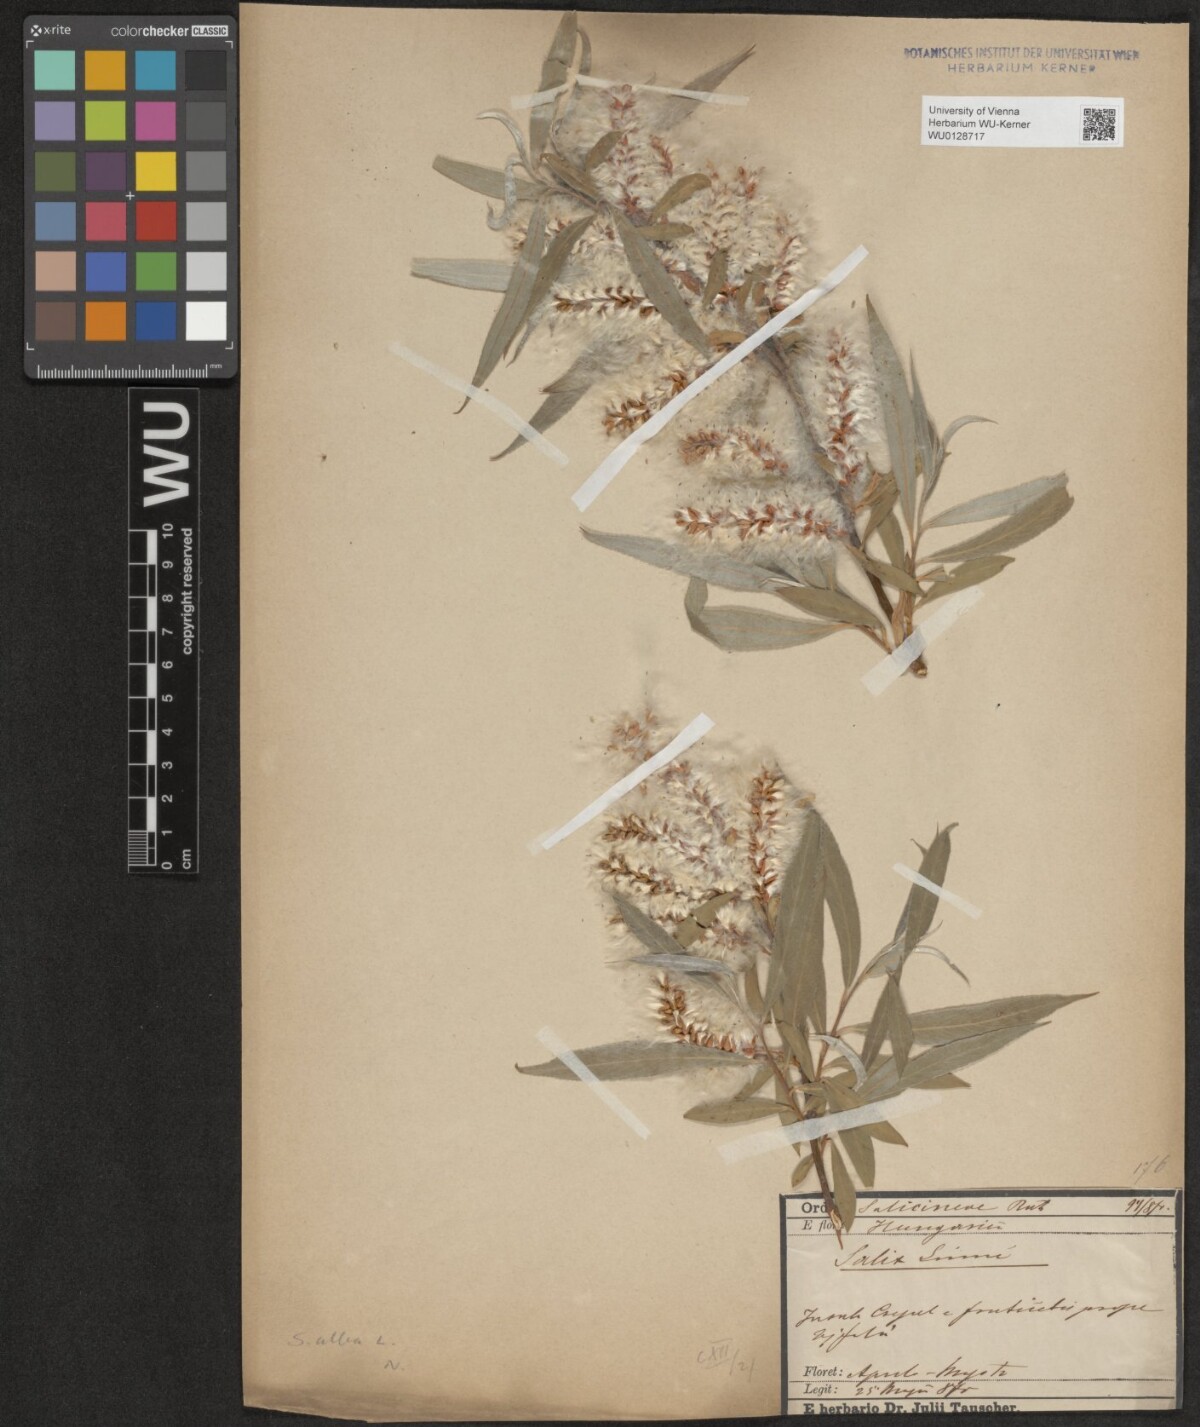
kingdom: Plantae
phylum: Tracheophyta
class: Magnoliopsida
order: Malpighiales
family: Salicaceae
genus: Salix
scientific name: Salix alba
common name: White willow
